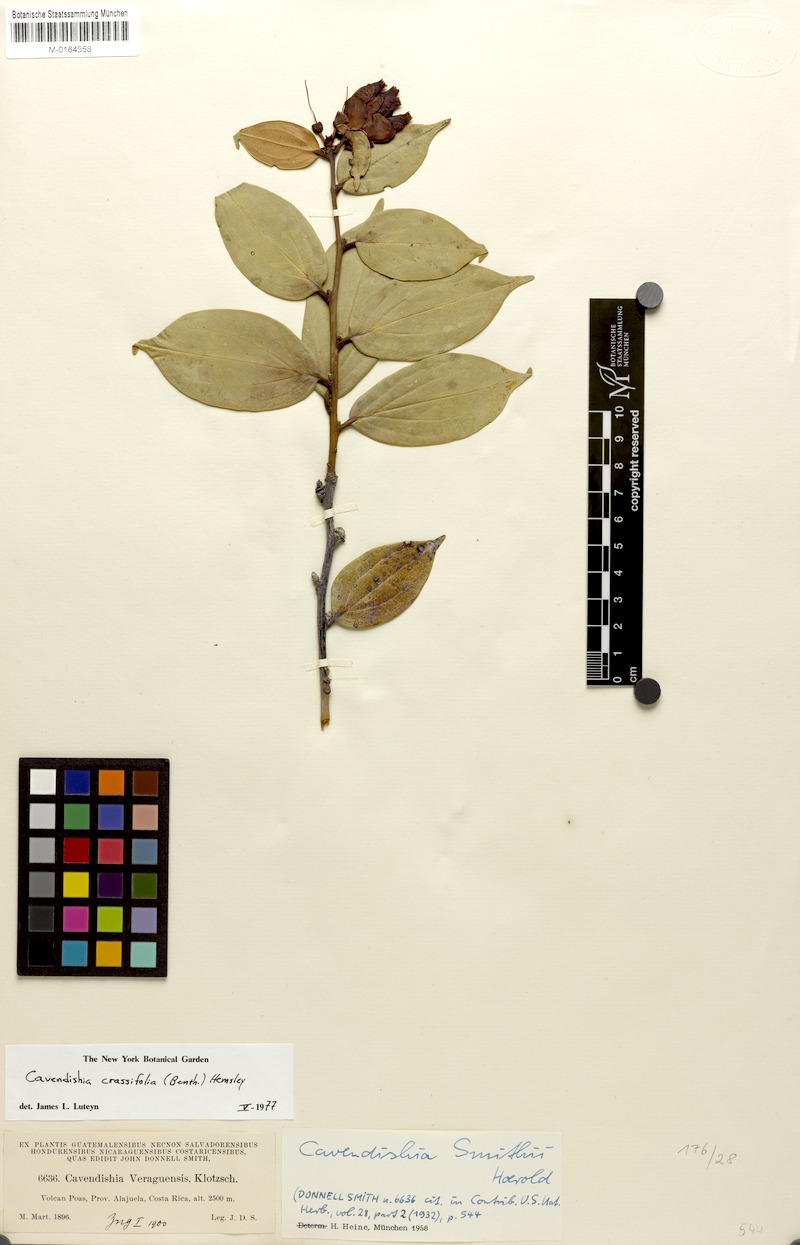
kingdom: Plantae
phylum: Tracheophyta
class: Magnoliopsida
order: Ericales
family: Ericaceae
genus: Cavendishia
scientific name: Cavendishia bracteata
